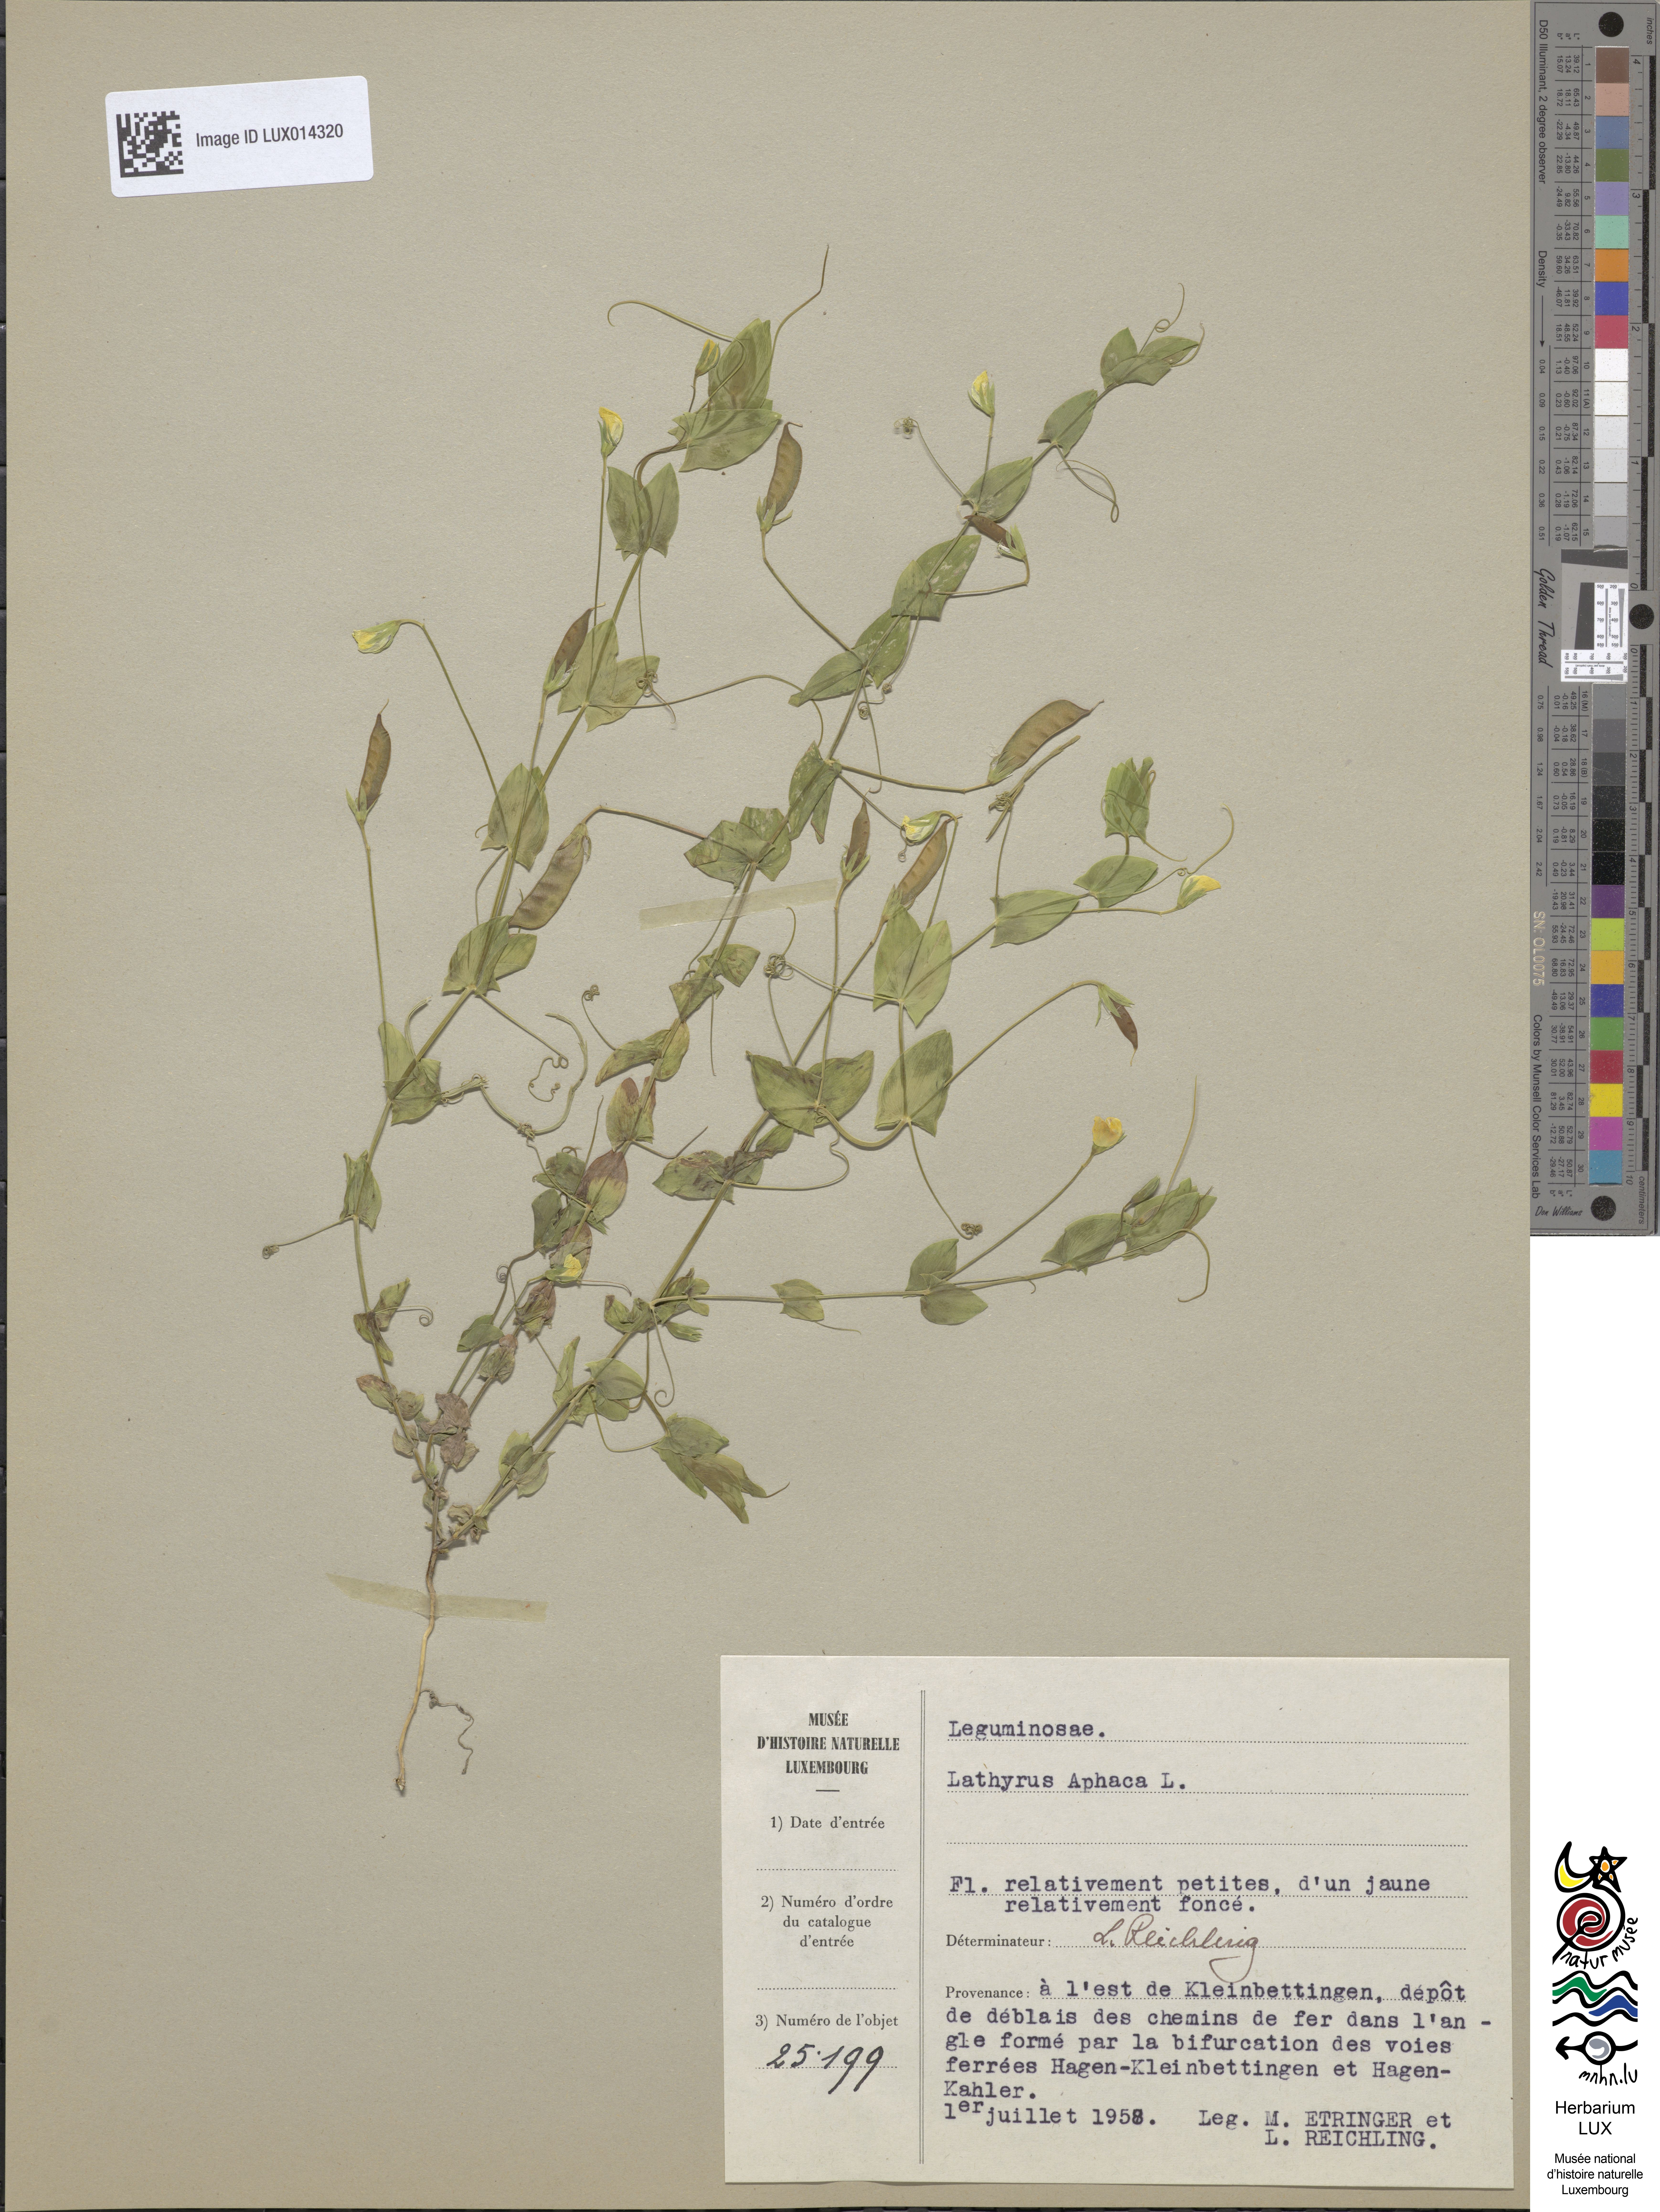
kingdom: Plantae
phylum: Tracheophyta
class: Magnoliopsida
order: Fabales
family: Fabaceae
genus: Lathyrus
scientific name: Lathyrus aphaca
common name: Yellow vetchling
